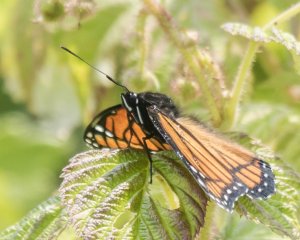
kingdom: Animalia
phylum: Arthropoda
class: Insecta
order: Lepidoptera
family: Nymphalidae
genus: Limenitis
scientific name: Limenitis archippus
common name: Viceroy
